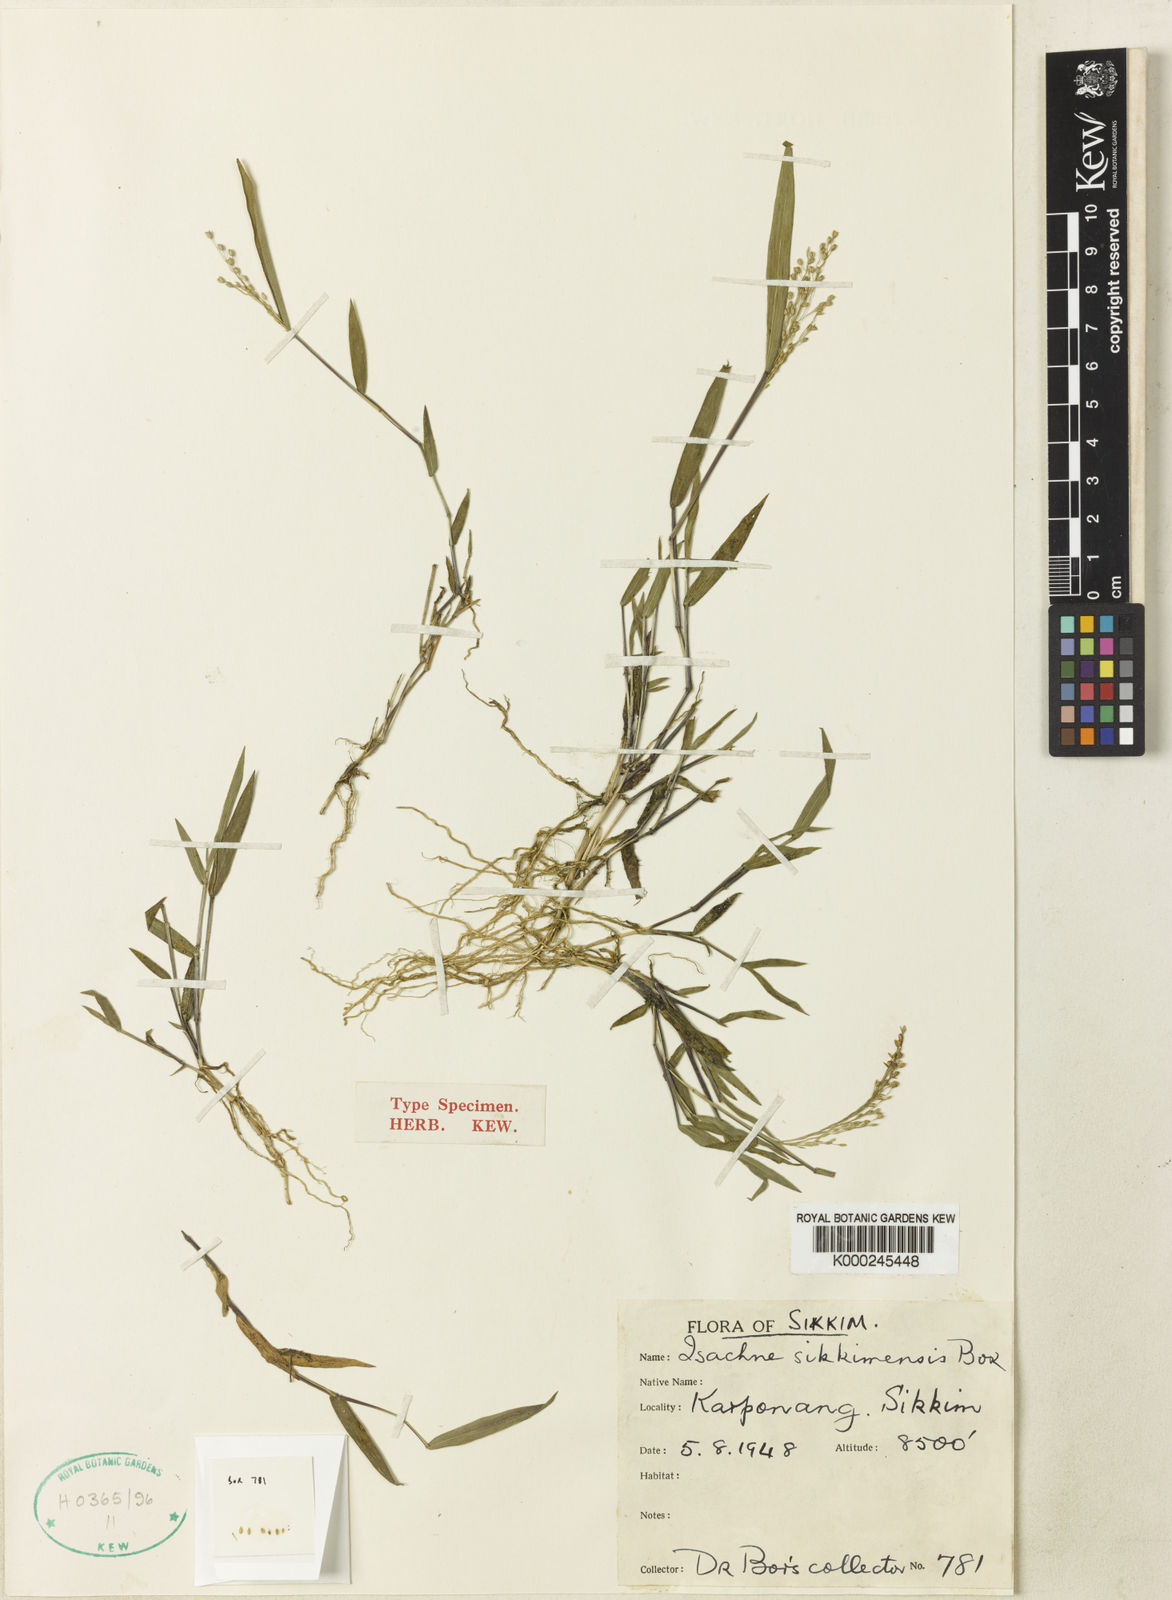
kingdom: Plantae
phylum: Tracheophyta
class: Liliopsida
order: Poales
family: Poaceae
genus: Isachne
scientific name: Isachne sikkimensis
